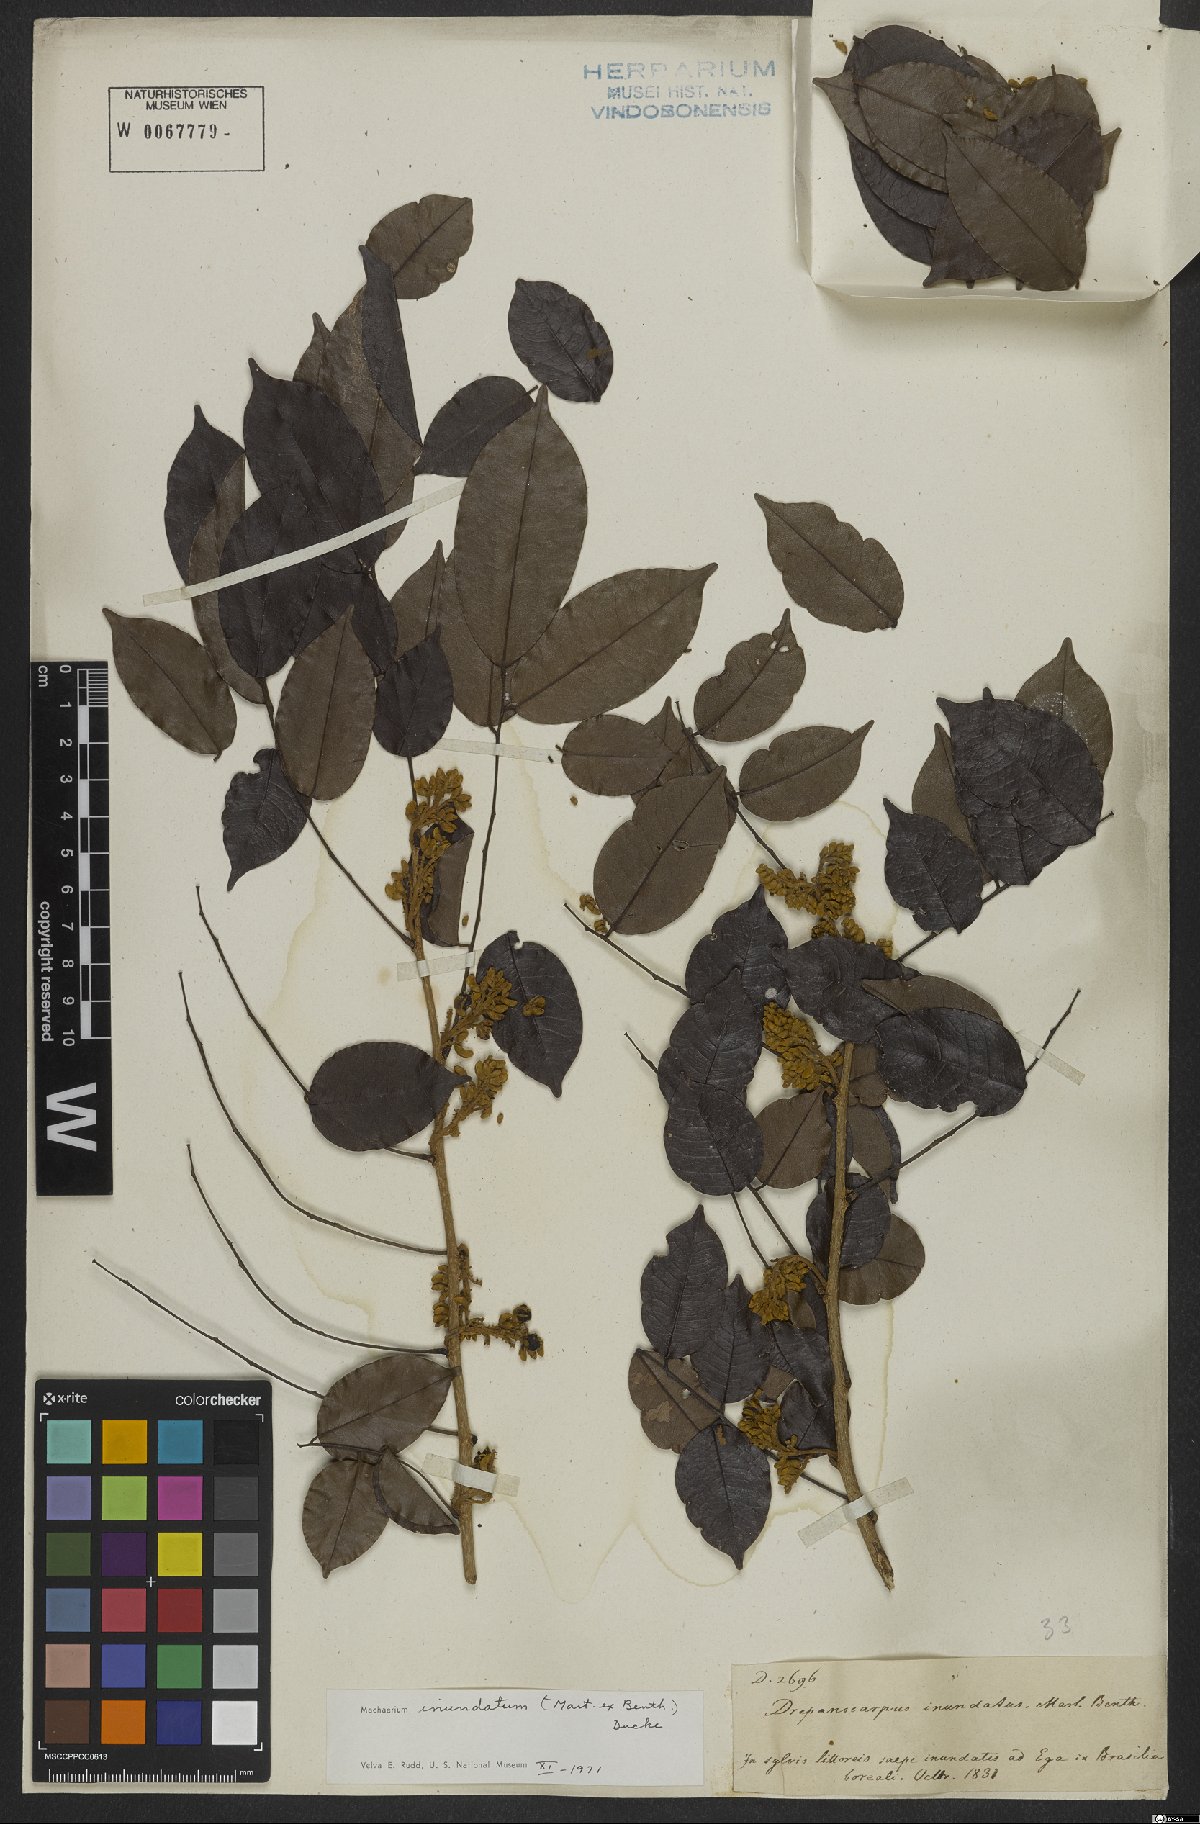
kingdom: Plantae
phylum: Tracheophyta
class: Magnoliopsida
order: Fabales
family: Fabaceae
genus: Machaerium
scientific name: Machaerium inundatum
